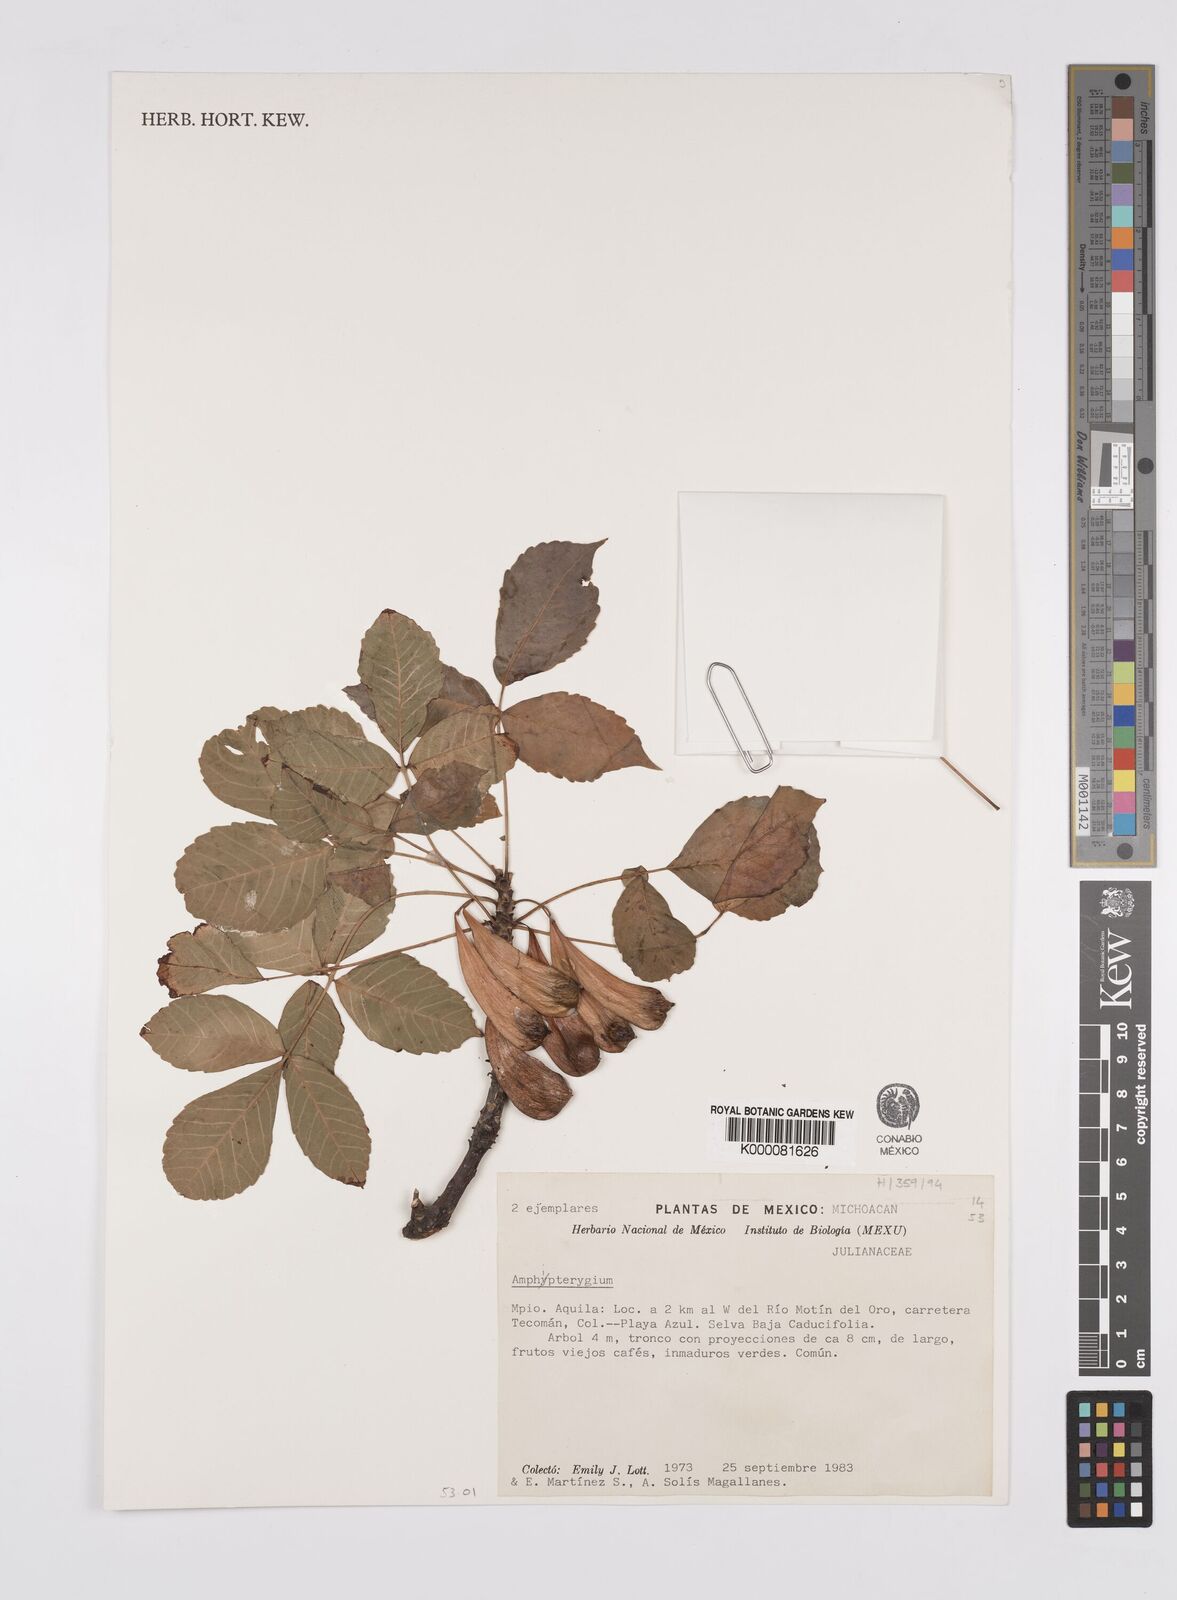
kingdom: Plantae
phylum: Tracheophyta
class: Magnoliopsida
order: Sapindales
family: Anacardiaceae
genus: Amphipterygium
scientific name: Amphipterygium
